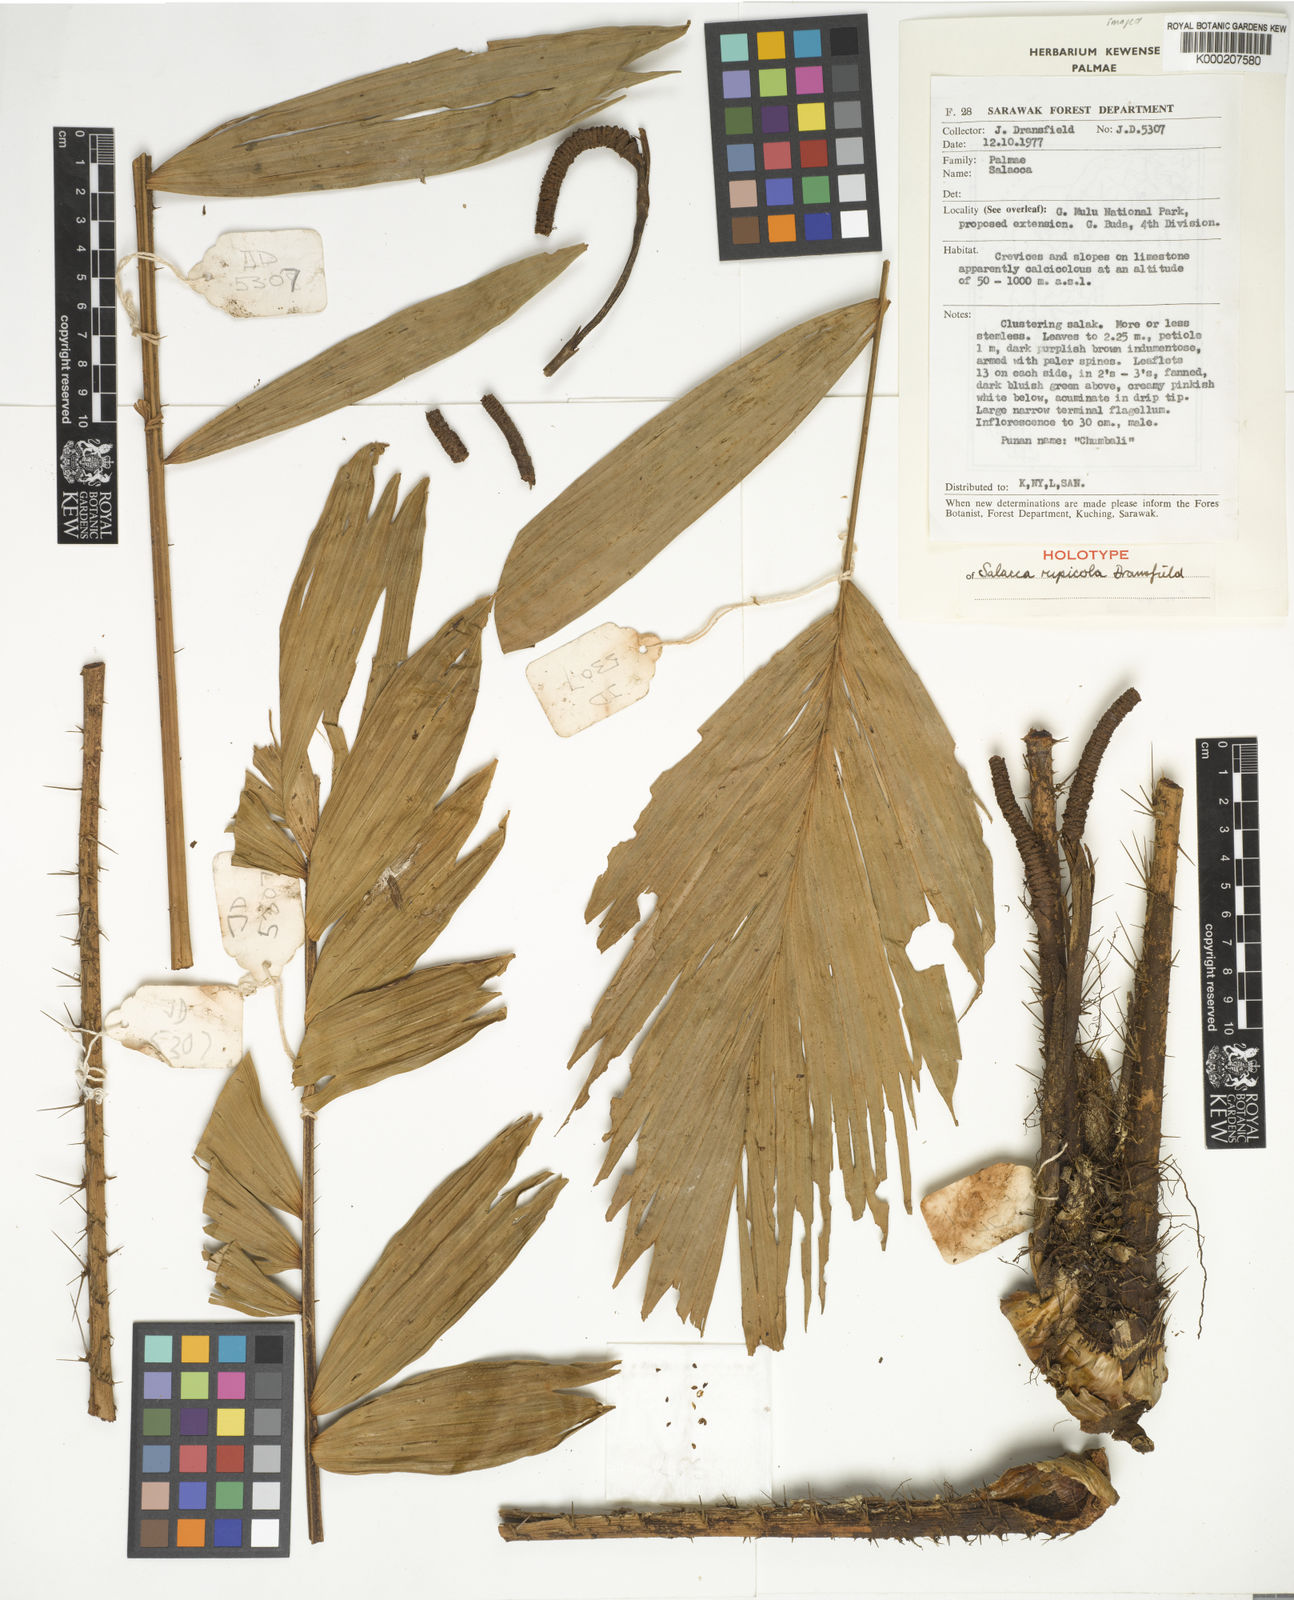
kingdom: Plantae
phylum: Tracheophyta
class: Liliopsida
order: Arecales
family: Arecaceae
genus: Salacca
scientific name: Salacca rupicola
